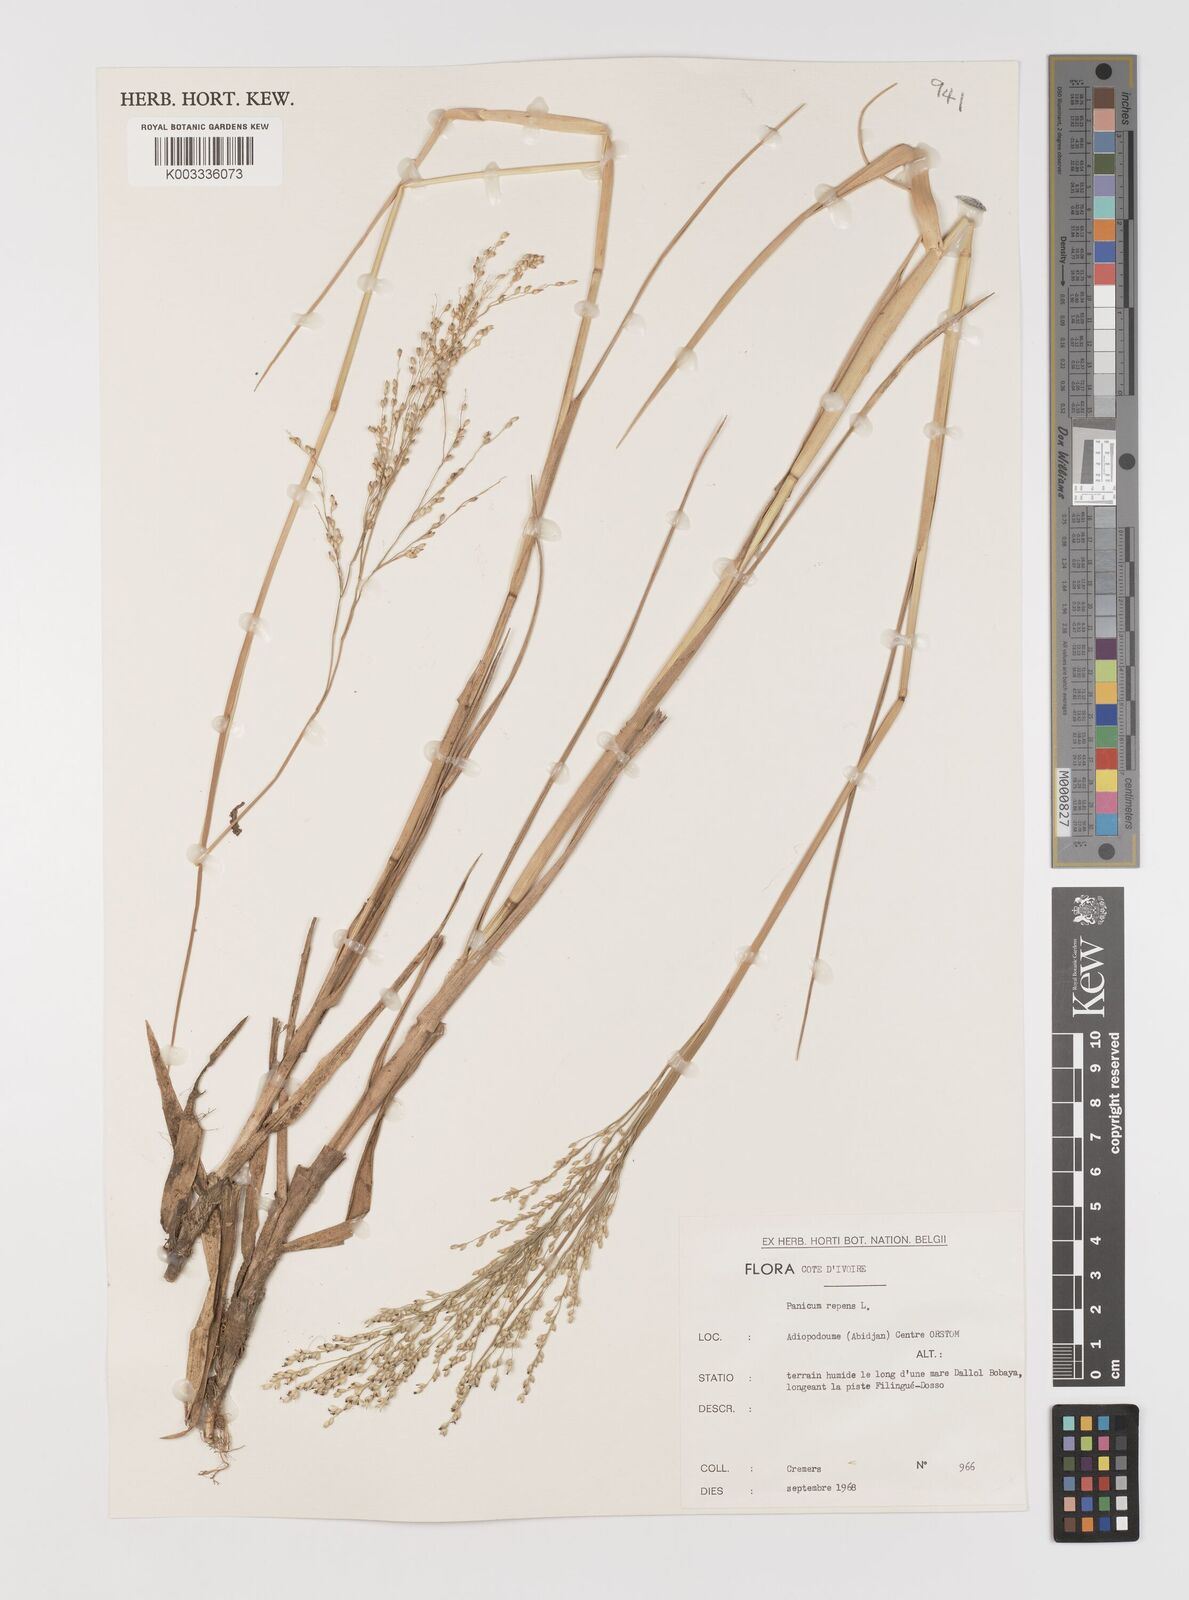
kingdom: Plantae
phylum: Tracheophyta
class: Liliopsida
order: Poales
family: Poaceae
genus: Panicum
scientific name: Panicum repens
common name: Torpedo grass
